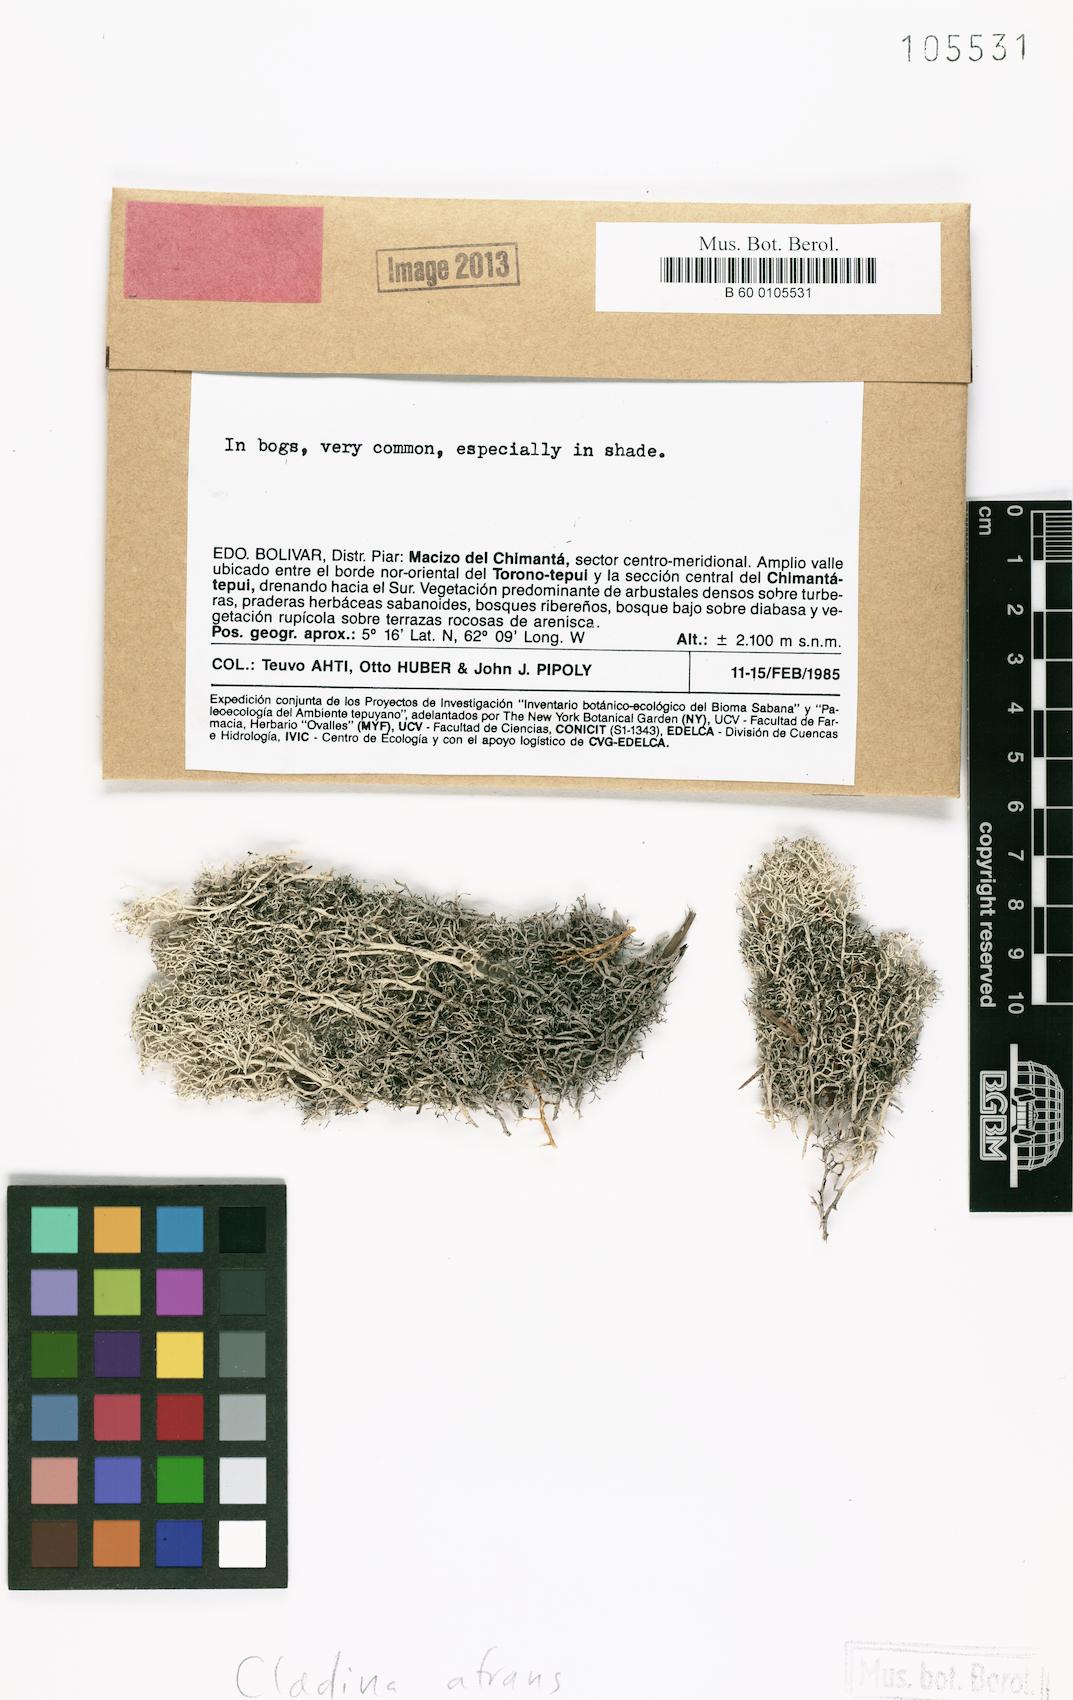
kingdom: Fungi
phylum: Ascomycota
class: Lecanoromycetes
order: Lecanorales
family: Cladoniaceae
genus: Cladonia
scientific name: Cladonia atrans
